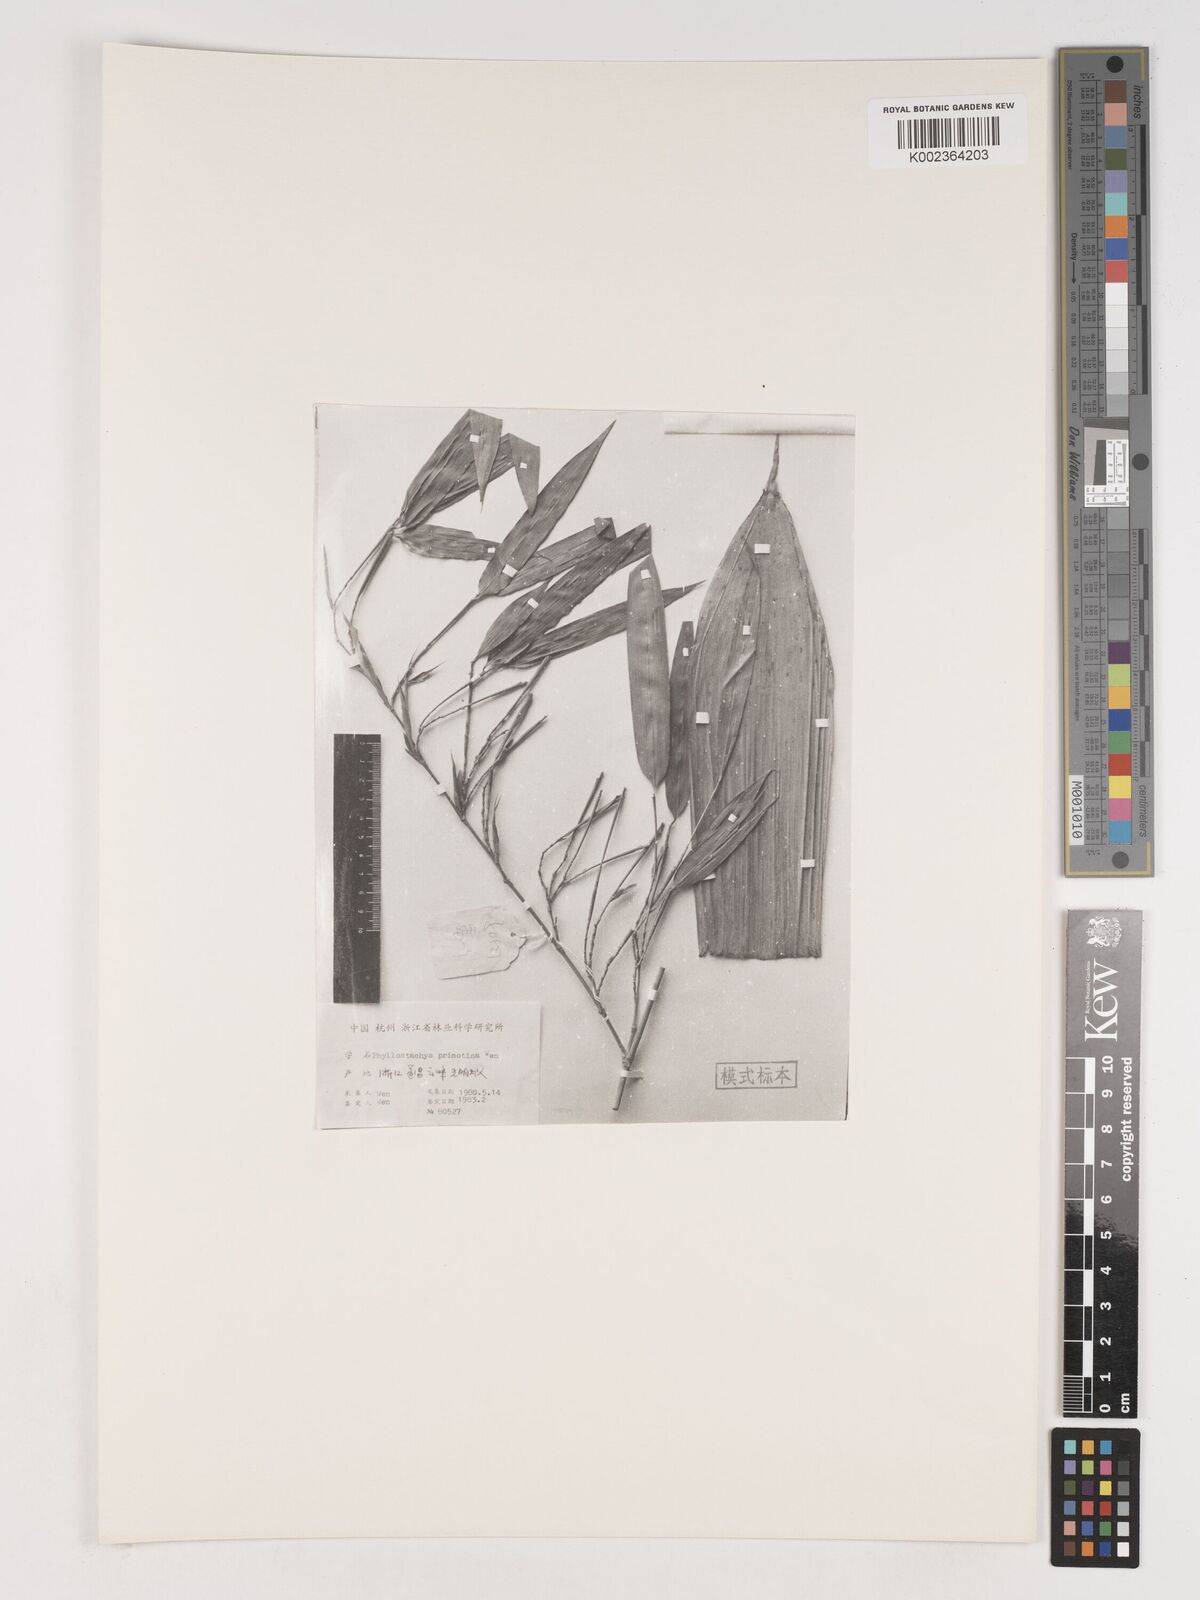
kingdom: Plantae
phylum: Tracheophyta
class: Liliopsida
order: Poales
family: Poaceae
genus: Phyllostachys
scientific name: Phyllostachys primotina
